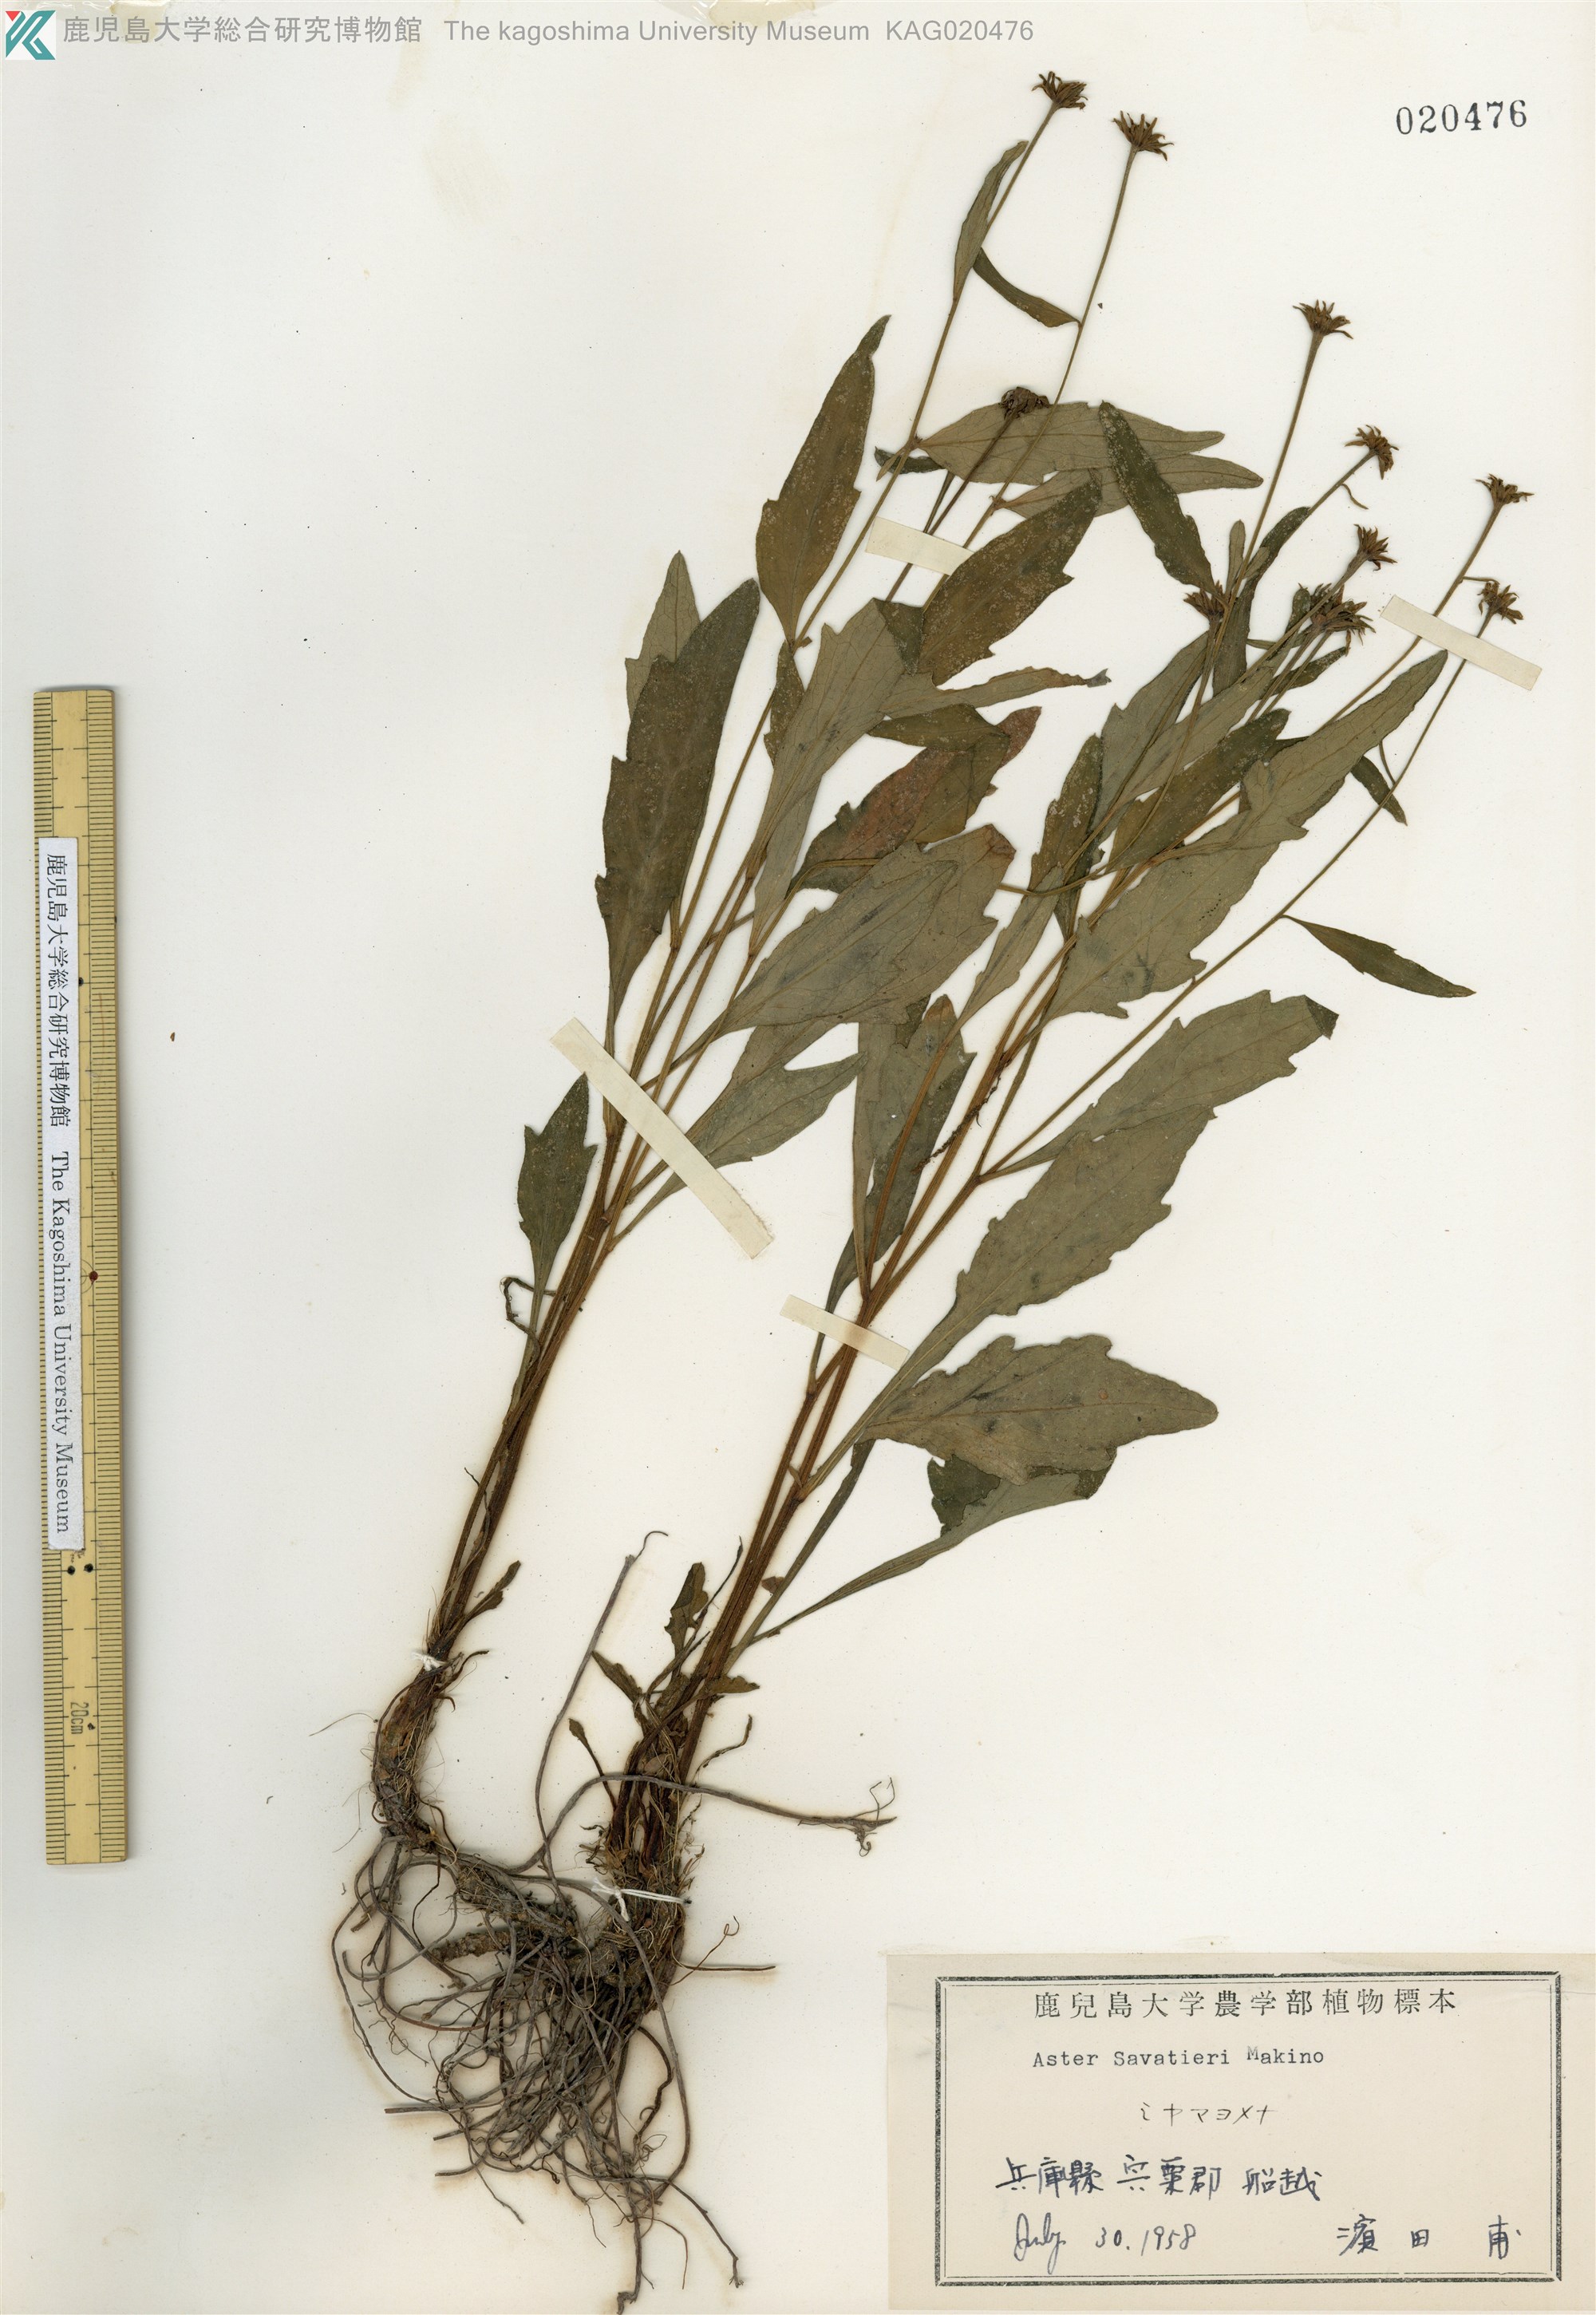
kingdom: Plantae
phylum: Tracheophyta
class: Magnoliopsida
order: Asterales
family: Asteraceae
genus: Miyamayomena
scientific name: Miyamayomena savatieri
